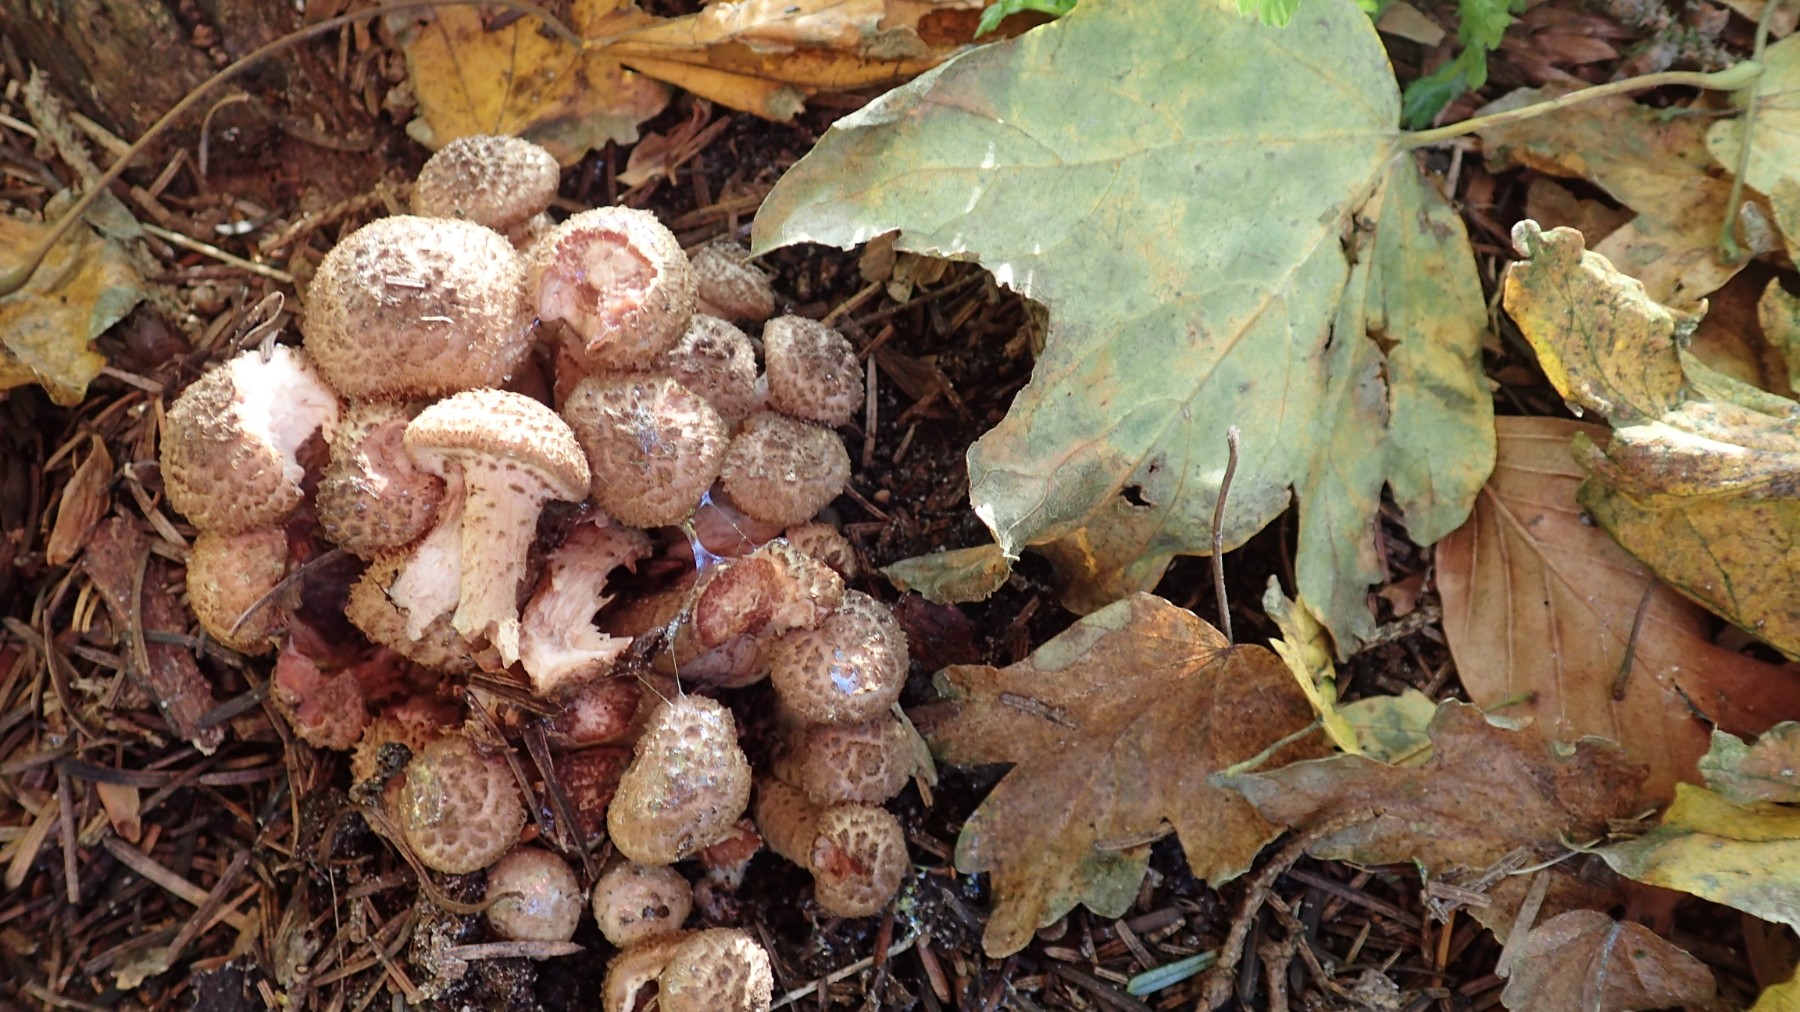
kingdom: Fungi
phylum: Basidiomycota
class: Agaricomycetes
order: Agaricales
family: Physalacriaceae
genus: Armillaria
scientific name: Armillaria ostoyae
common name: mørk honningsvamp
